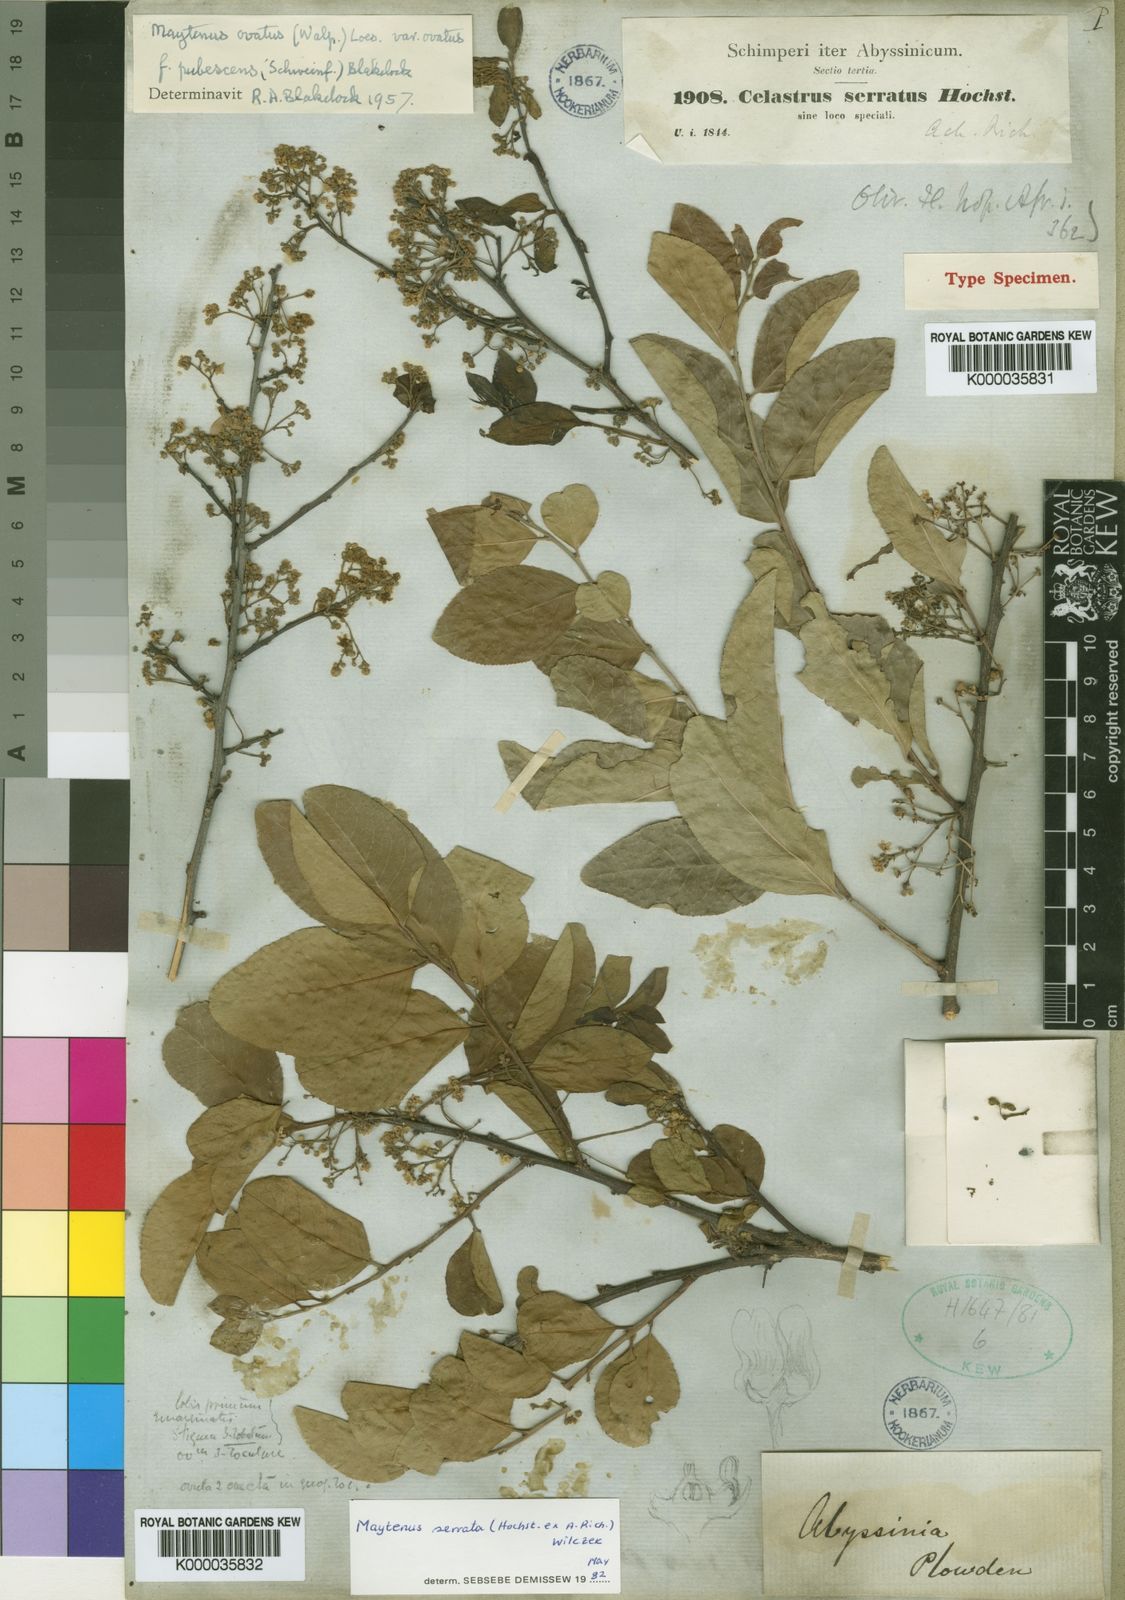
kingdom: Plantae
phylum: Tracheophyta
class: Magnoliopsida
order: Celastrales
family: Celastraceae
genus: Gymnosporia
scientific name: Gymnosporia serrata
